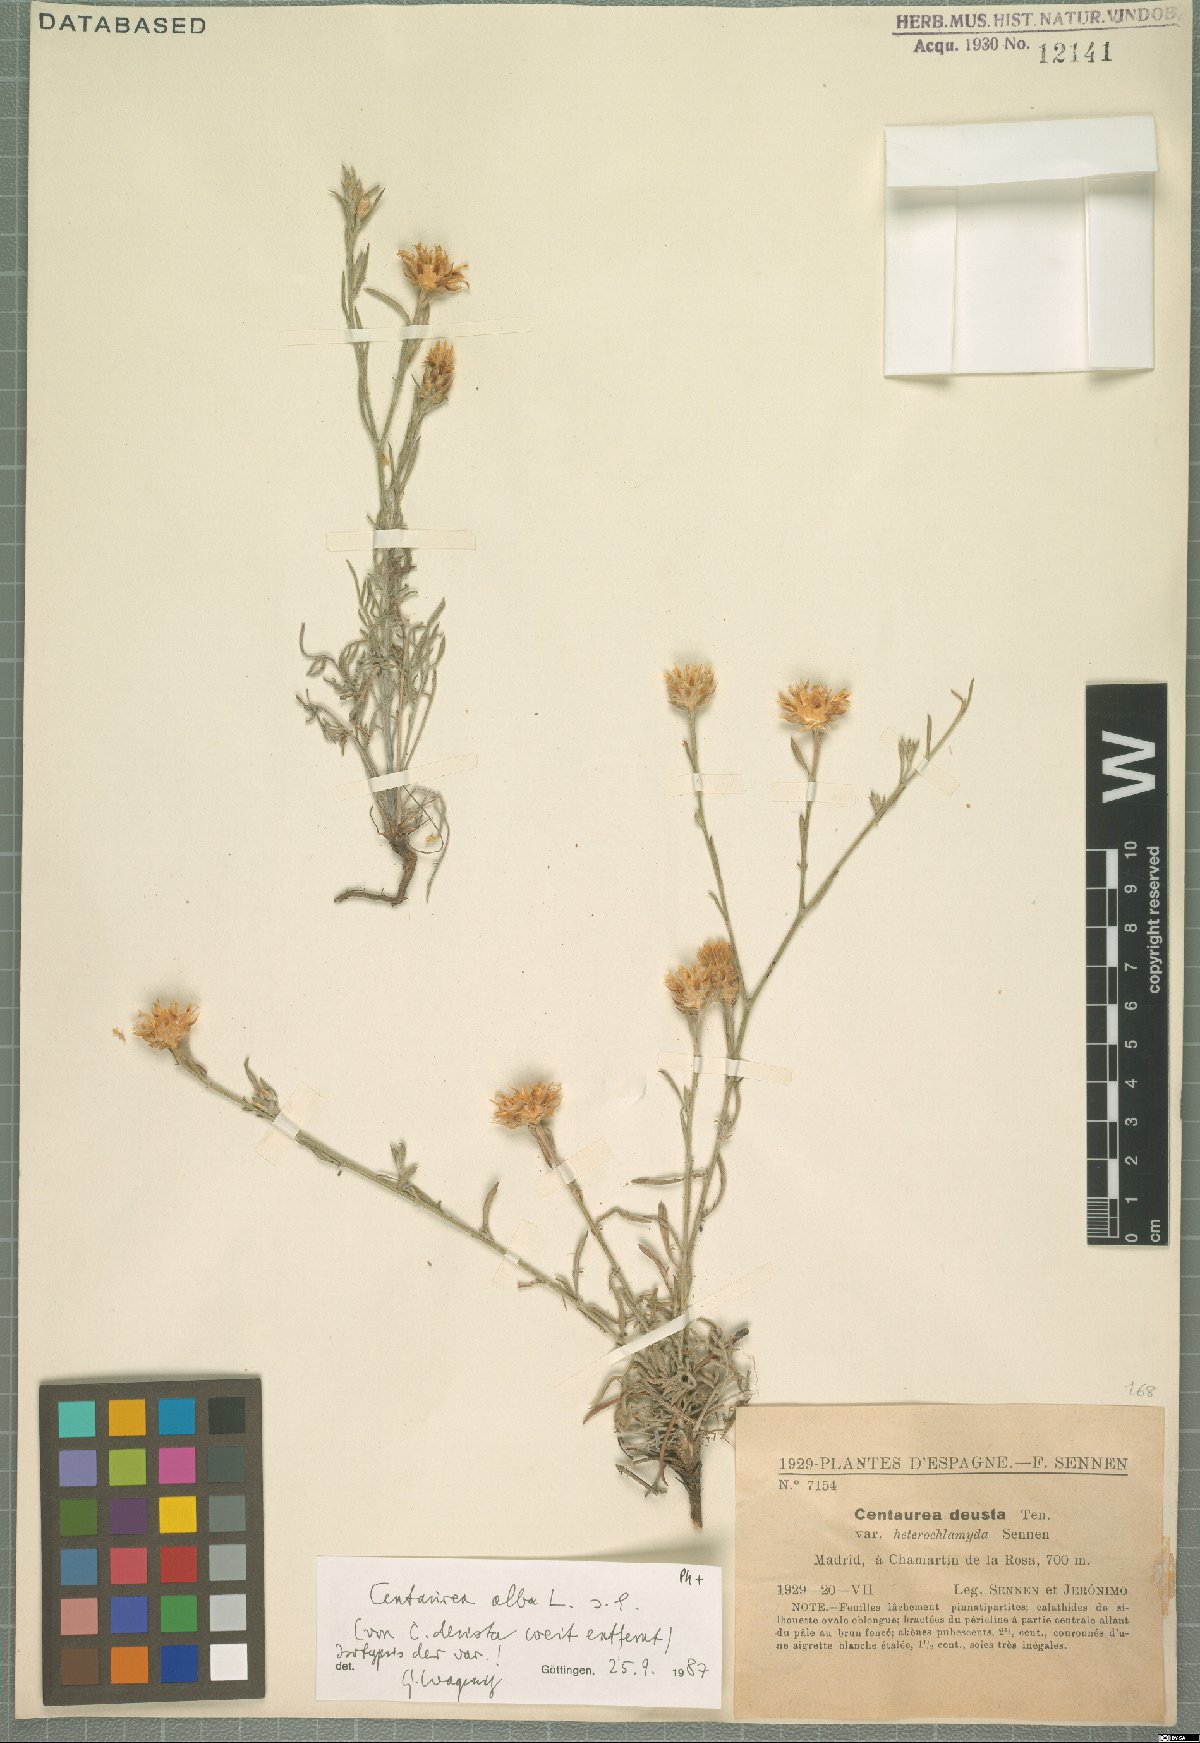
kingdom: Plantae
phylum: Tracheophyta
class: Magnoliopsida
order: Asterales
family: Asteraceae
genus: Centaurea
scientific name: Centaurea alba
